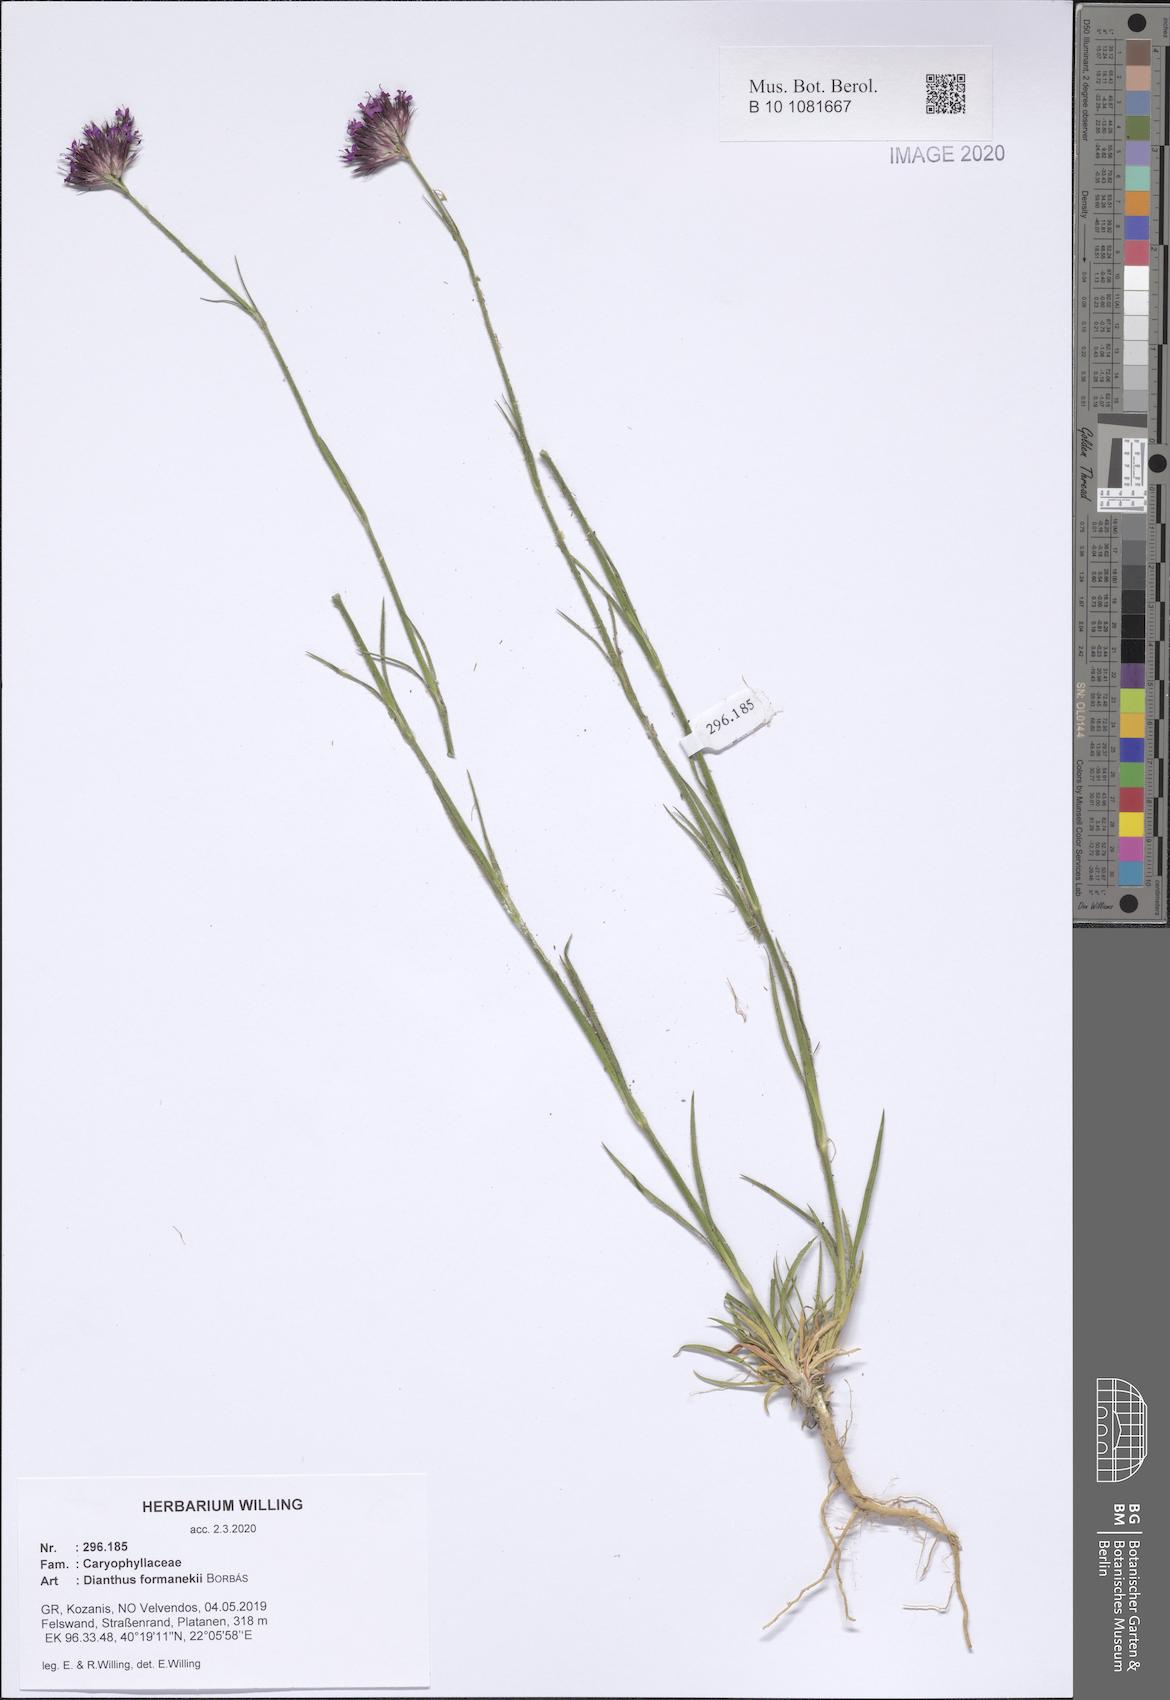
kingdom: Plantae
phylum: Tracheophyta
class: Magnoliopsida
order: Caryophyllales
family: Caryophyllaceae
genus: Dianthus
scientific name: Dianthus formanekii
